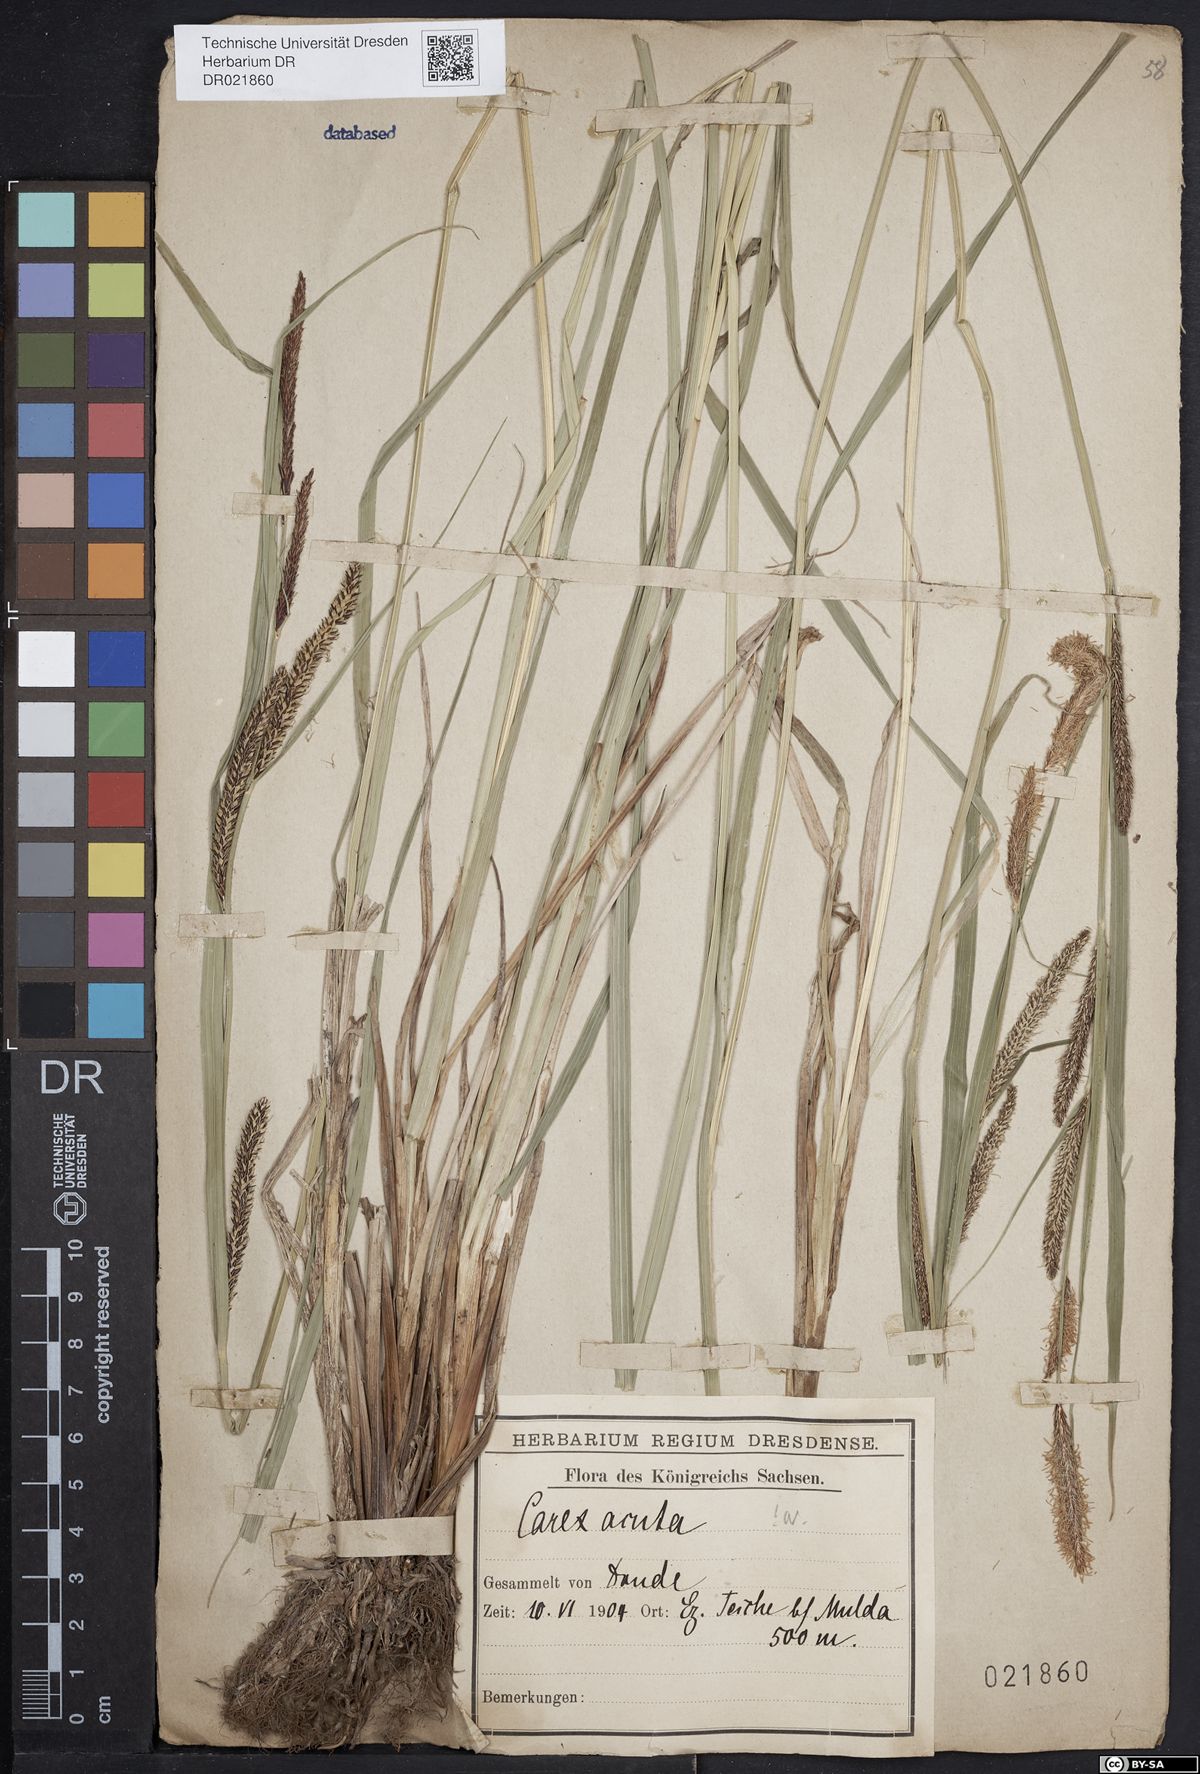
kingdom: Plantae
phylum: Tracheophyta
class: Liliopsida
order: Poales
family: Cyperaceae
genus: Carex
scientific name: Carex acuta
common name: Slender tufted-sedge
